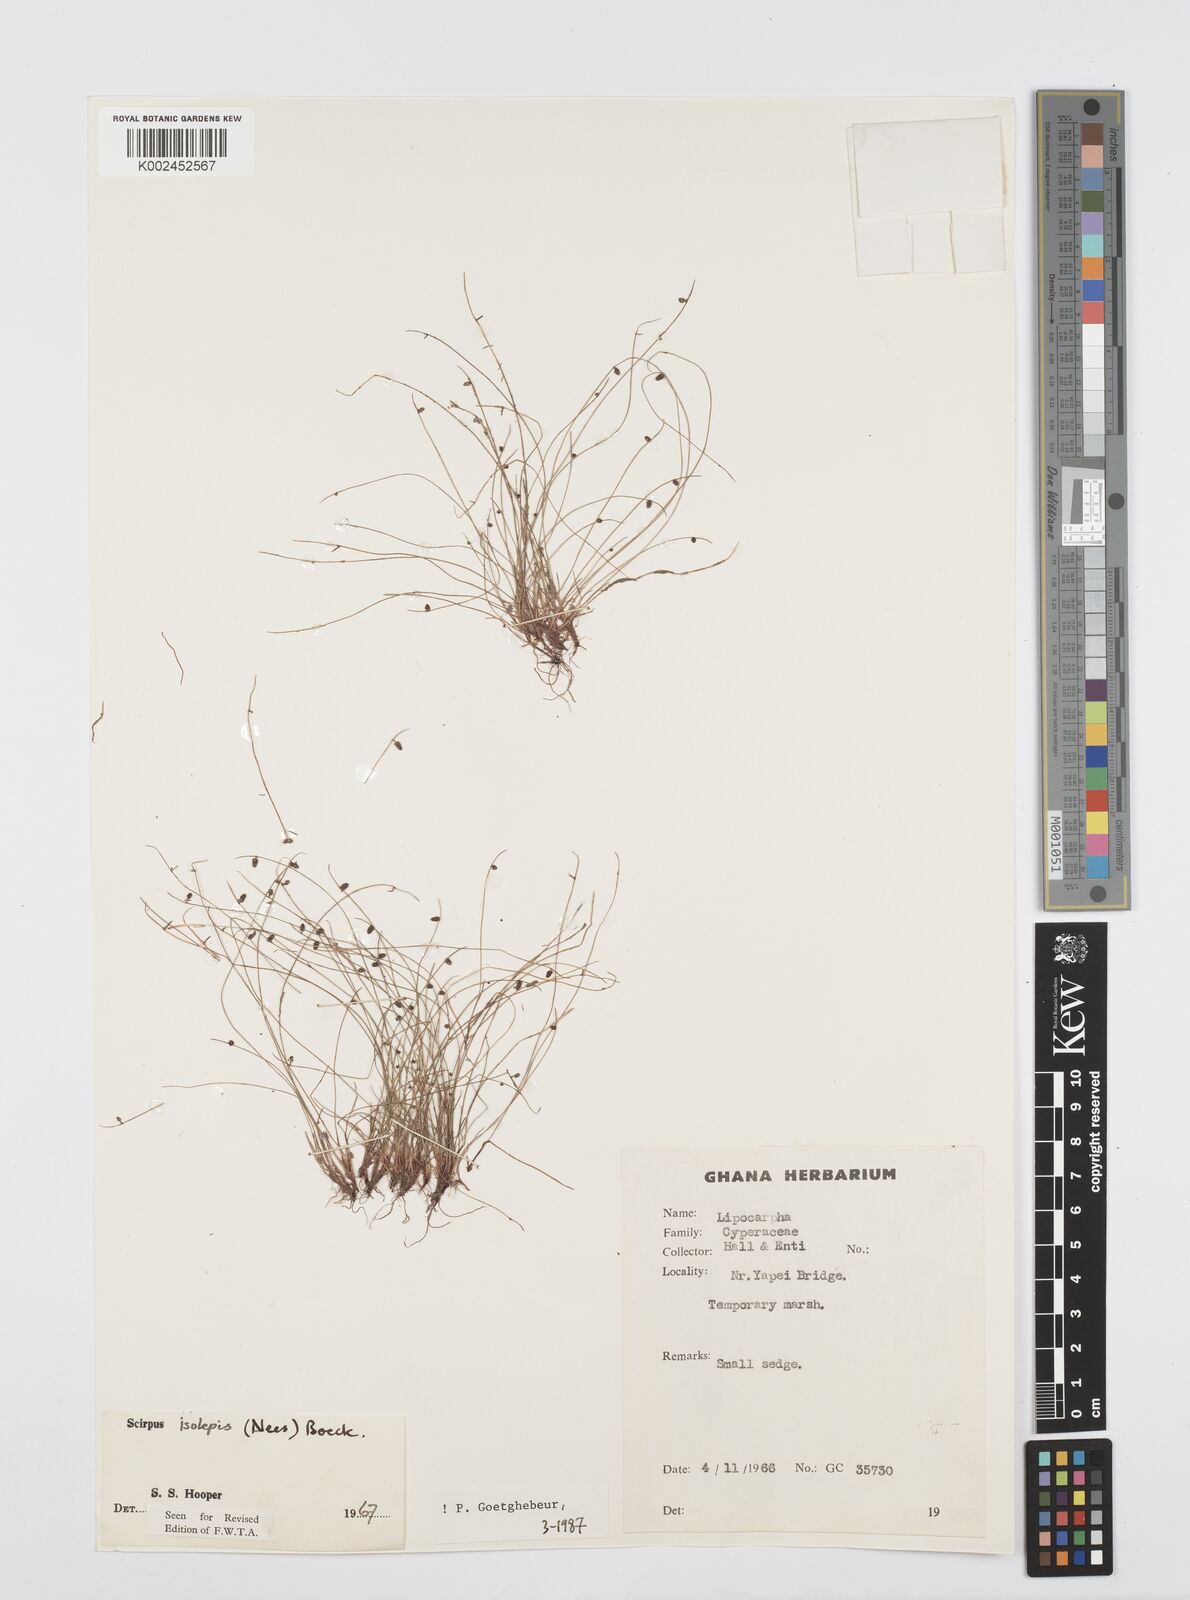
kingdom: Plantae
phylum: Tracheophyta
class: Liliopsida
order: Poales
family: Cyperaceae
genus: Cyperus
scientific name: Cyperus isolepis
